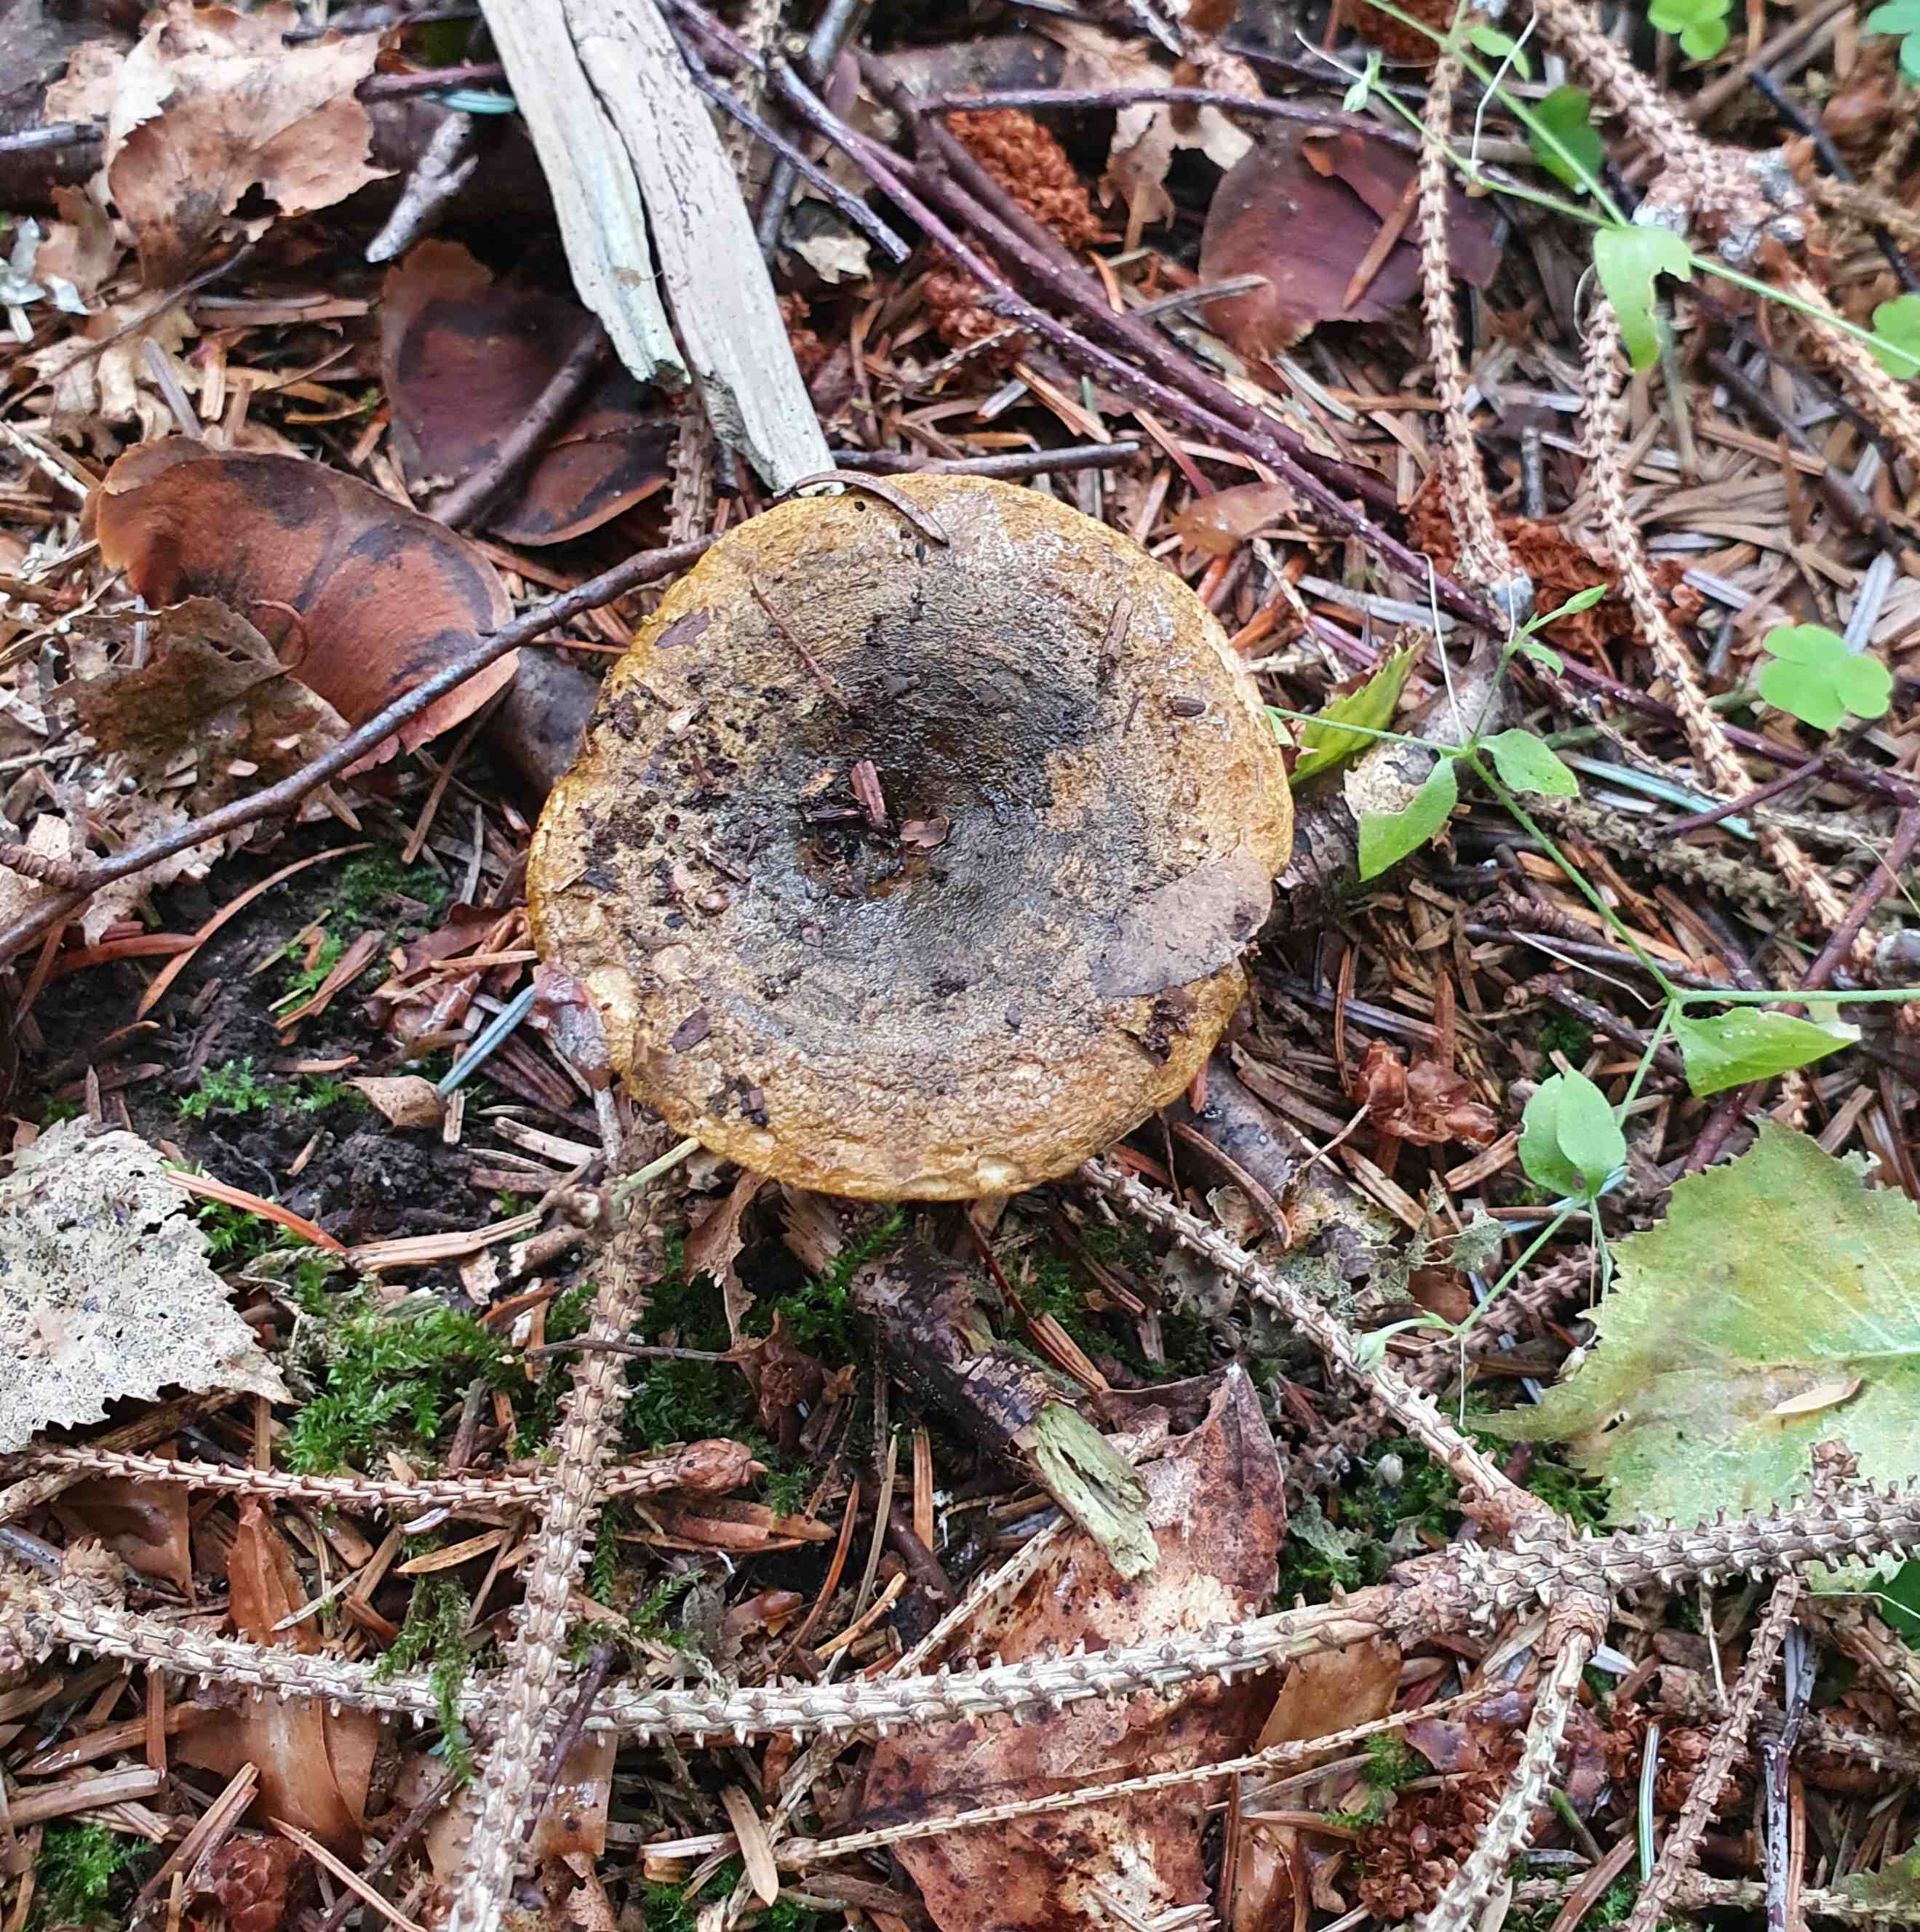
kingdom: Fungi
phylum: Basidiomycota
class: Agaricomycetes
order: Russulales
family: Russulaceae
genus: Lactarius
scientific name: Lactarius necator
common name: manddraber-mælkehat
